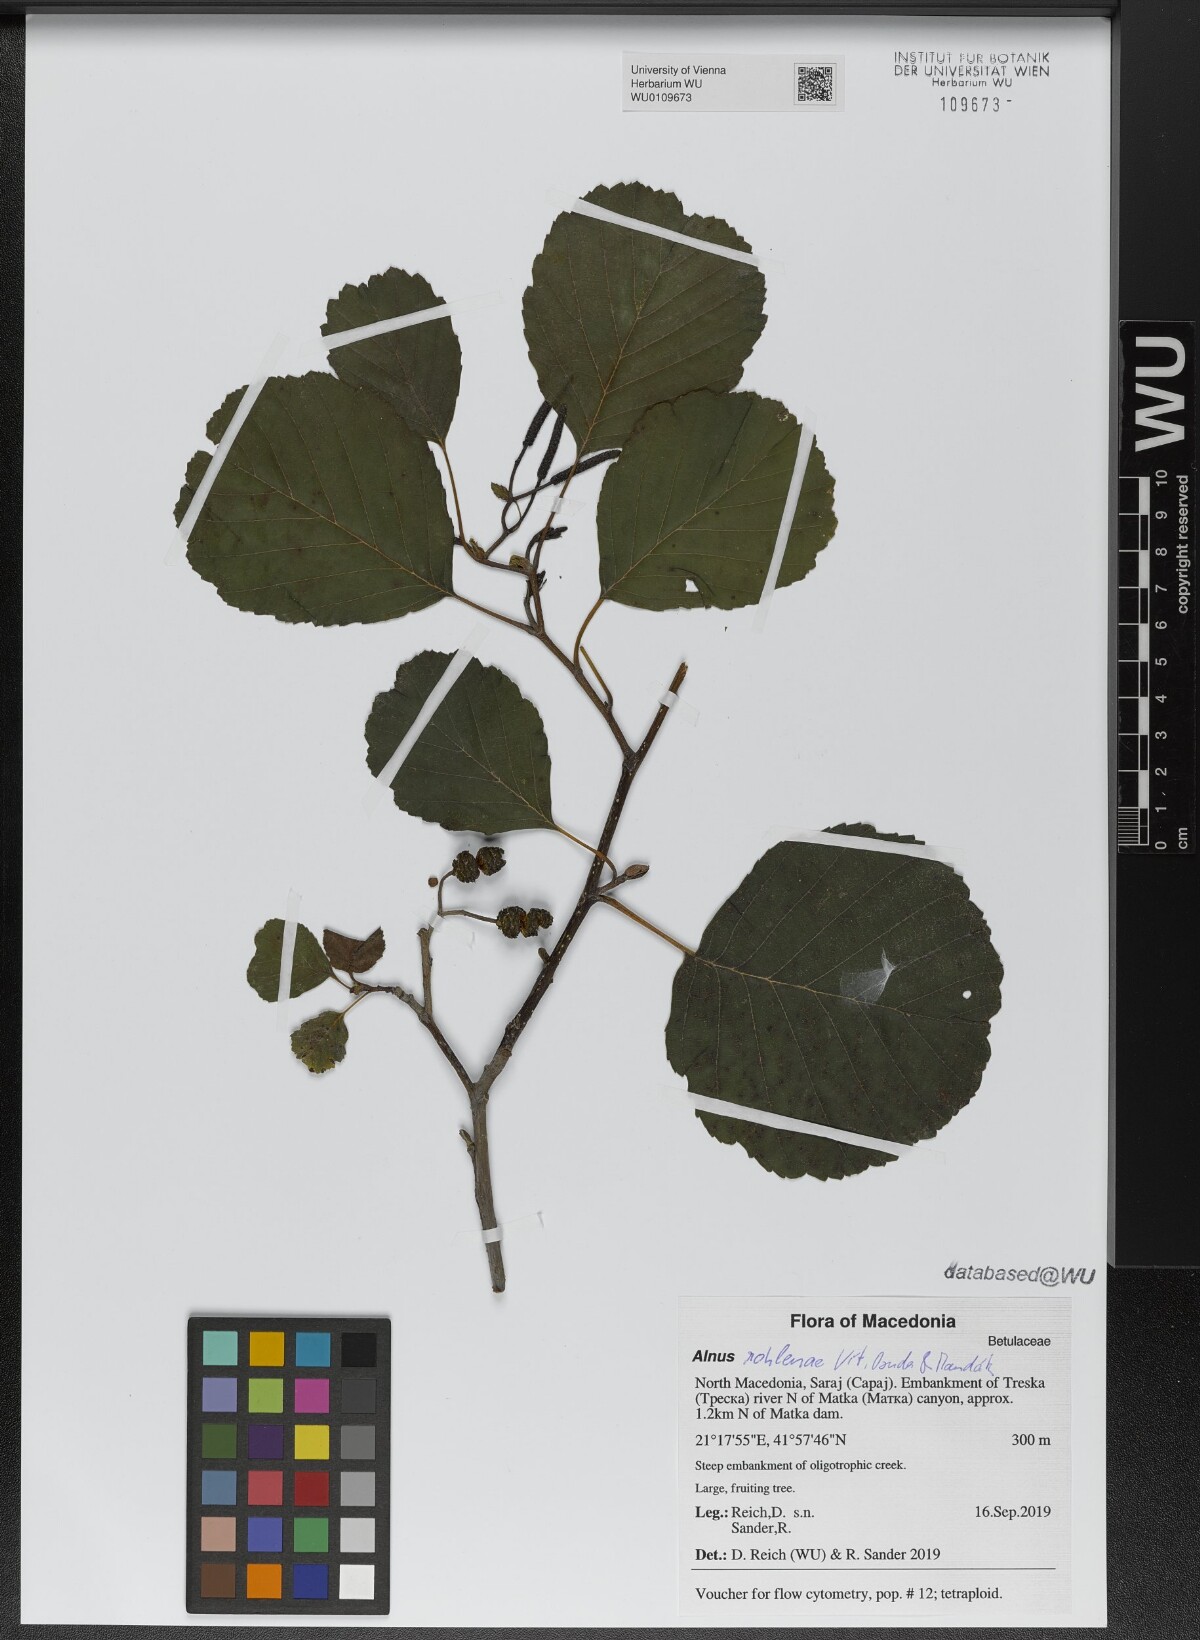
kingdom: Plantae
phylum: Tracheophyta
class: Magnoliopsida
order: Fagales
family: Betulaceae
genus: Alnus
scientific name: Alnus rohlenae
